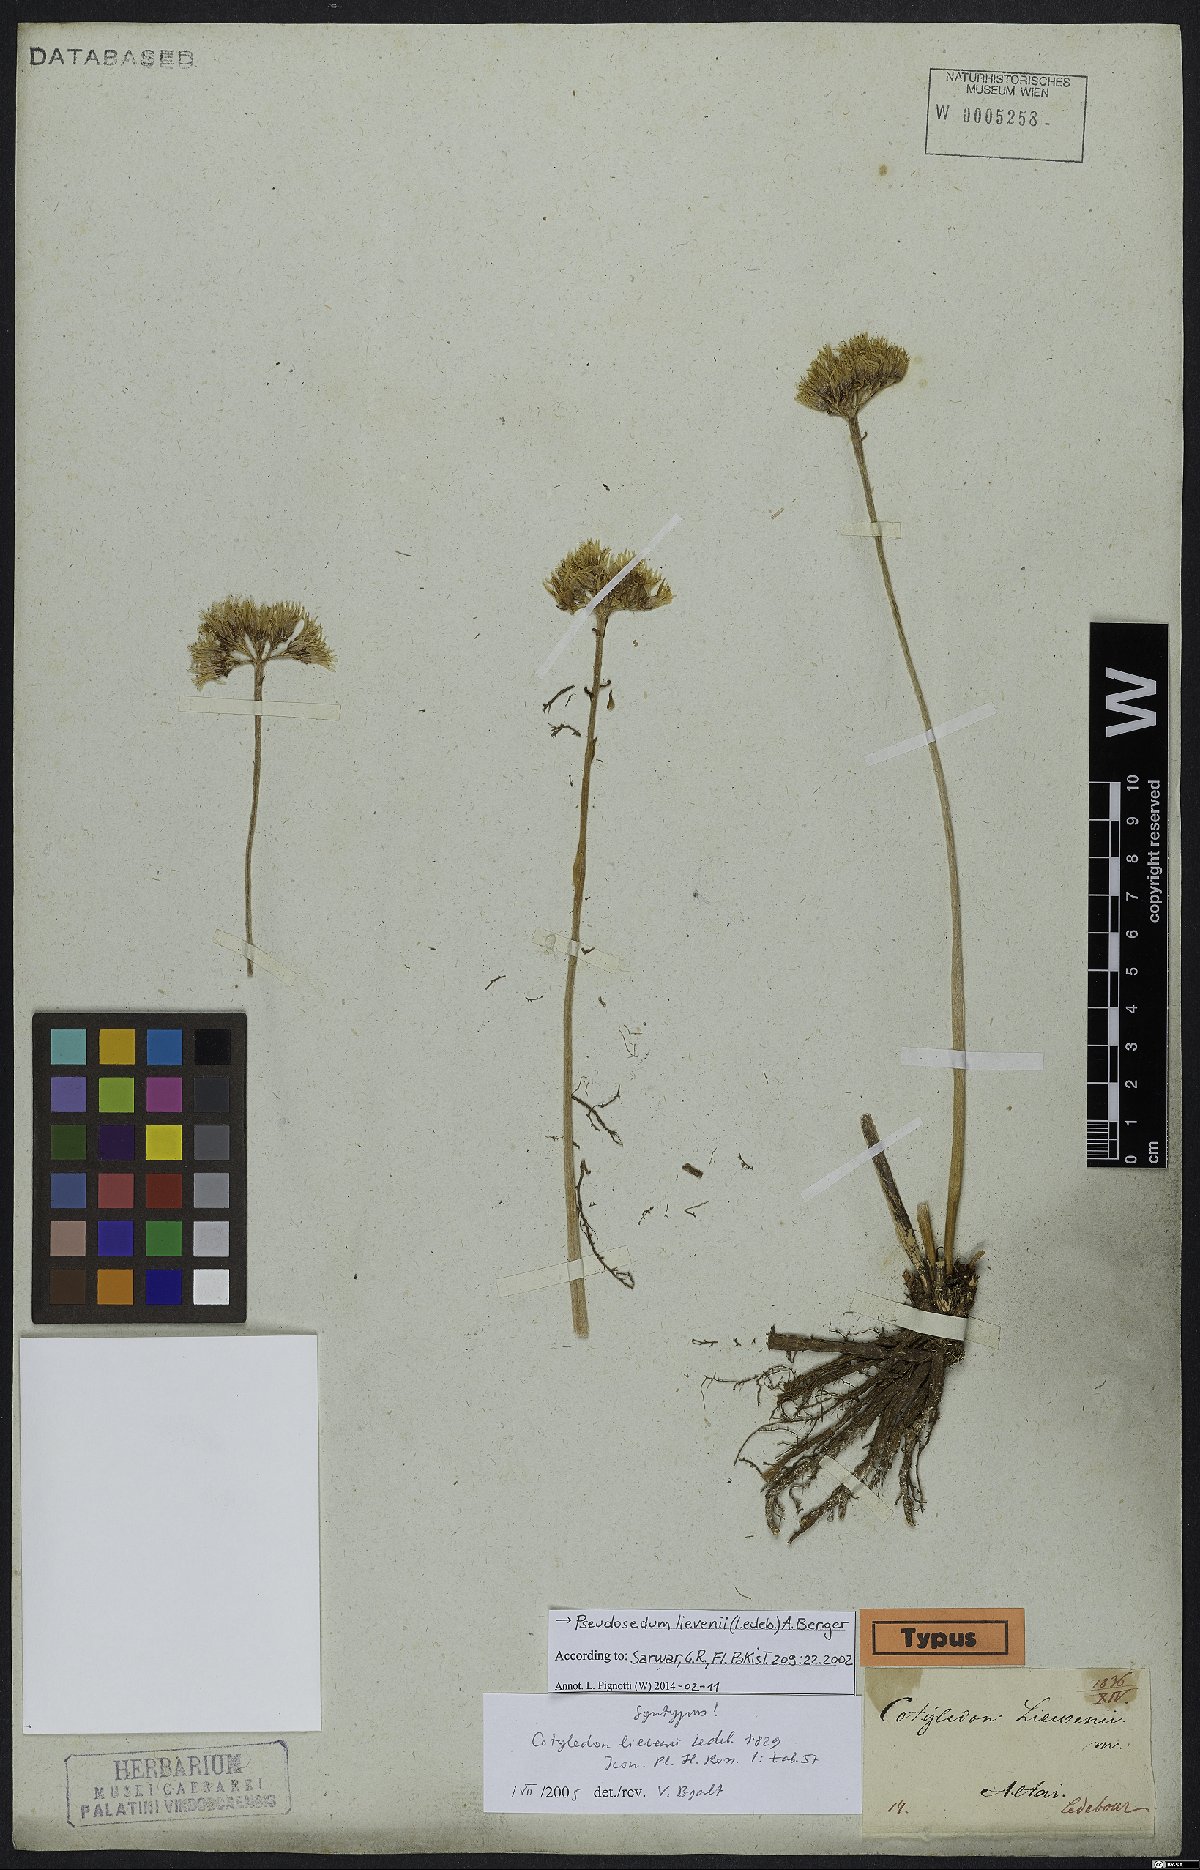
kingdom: Plantae
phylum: Tracheophyta
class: Magnoliopsida
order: Saxifragales
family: Crassulaceae
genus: Pseudosedum
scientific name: Pseudosedum lievenii
